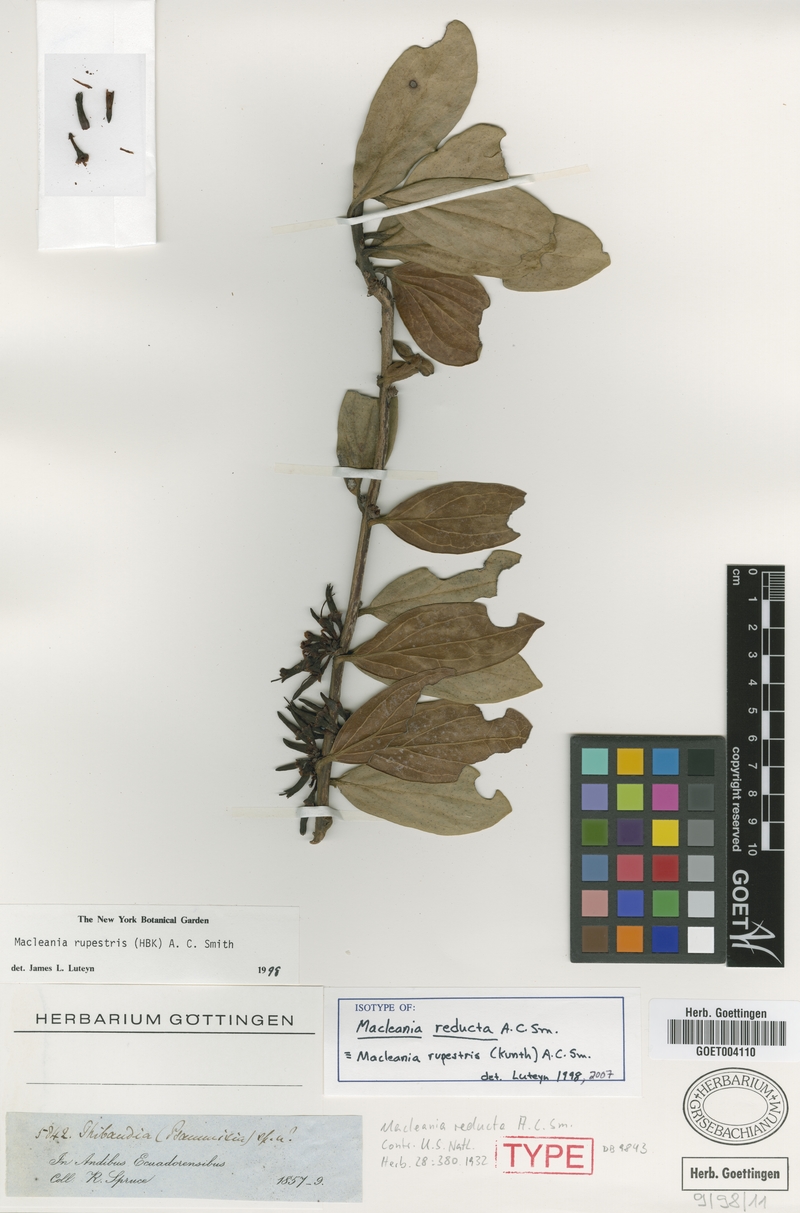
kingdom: Plantae
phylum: Tracheophyta
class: Magnoliopsida
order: Ericales
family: Ericaceae
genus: Macleania
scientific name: Macleania rupestris
